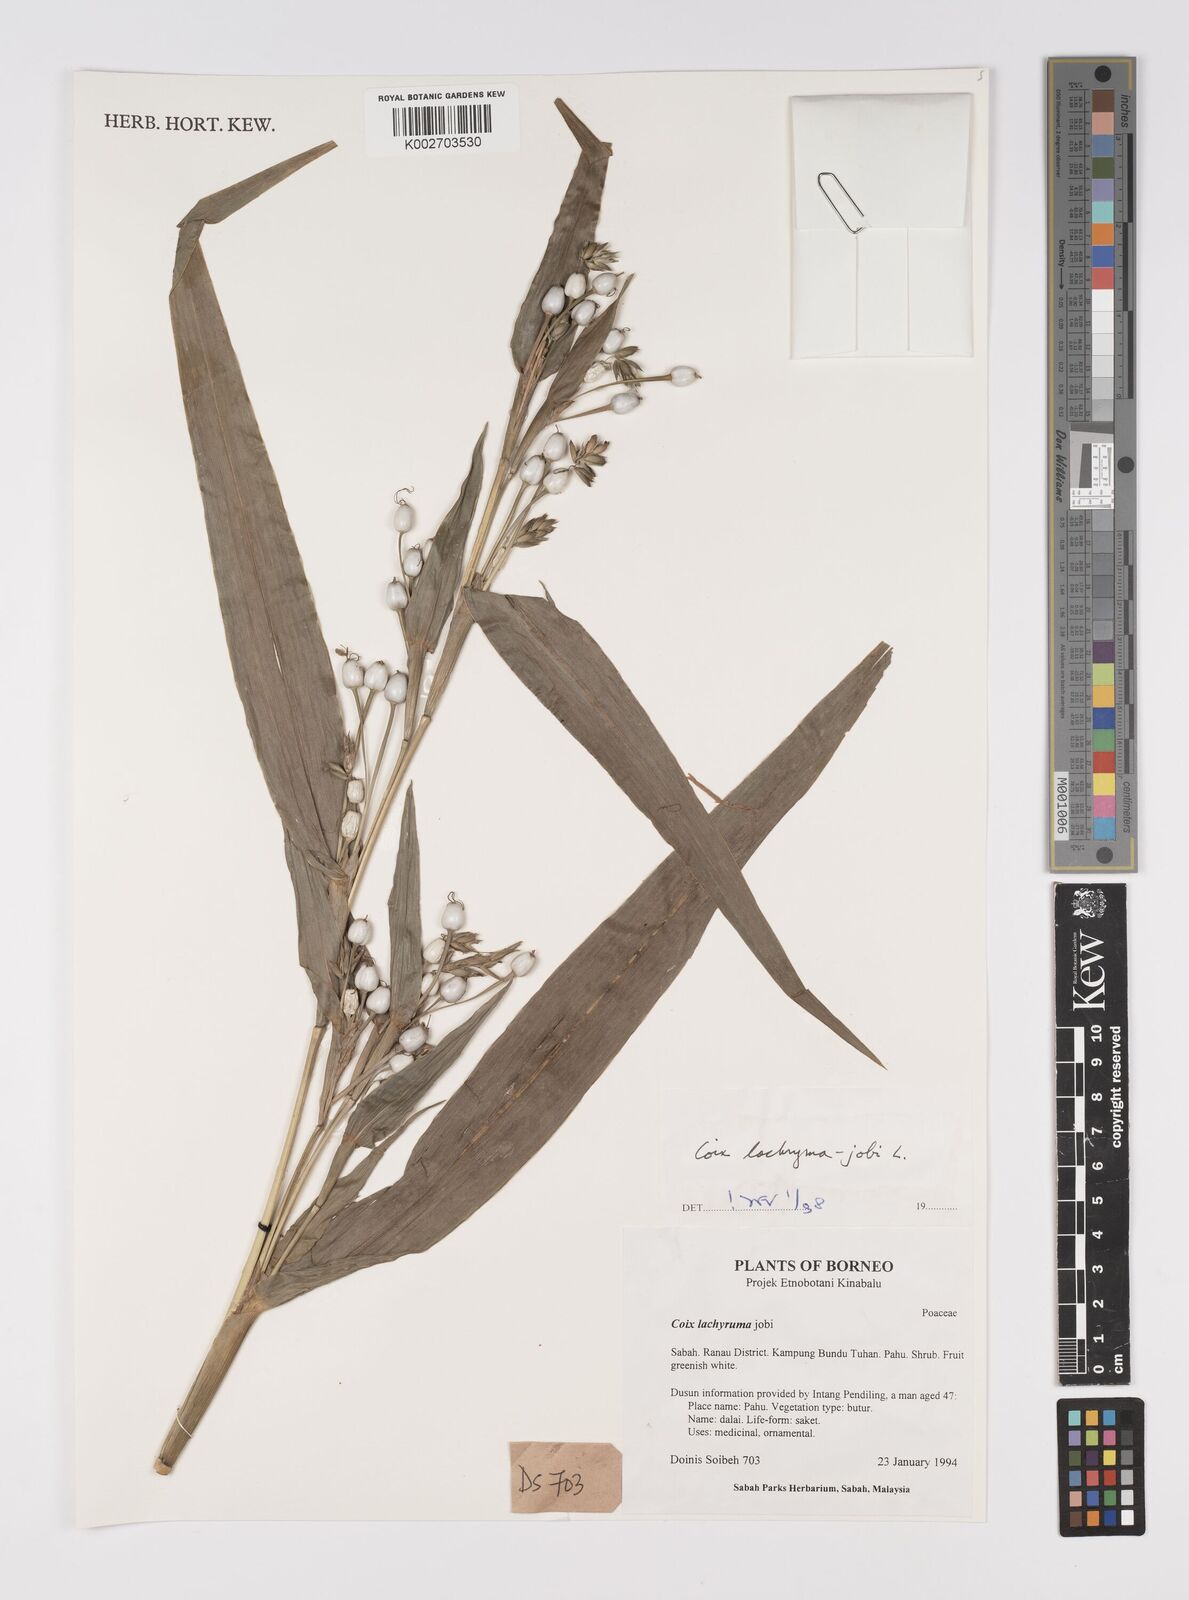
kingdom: Plantae
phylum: Tracheophyta
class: Liliopsida
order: Poales
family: Poaceae
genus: Coix
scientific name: Coix lacryma-jobi
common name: Job's tears
